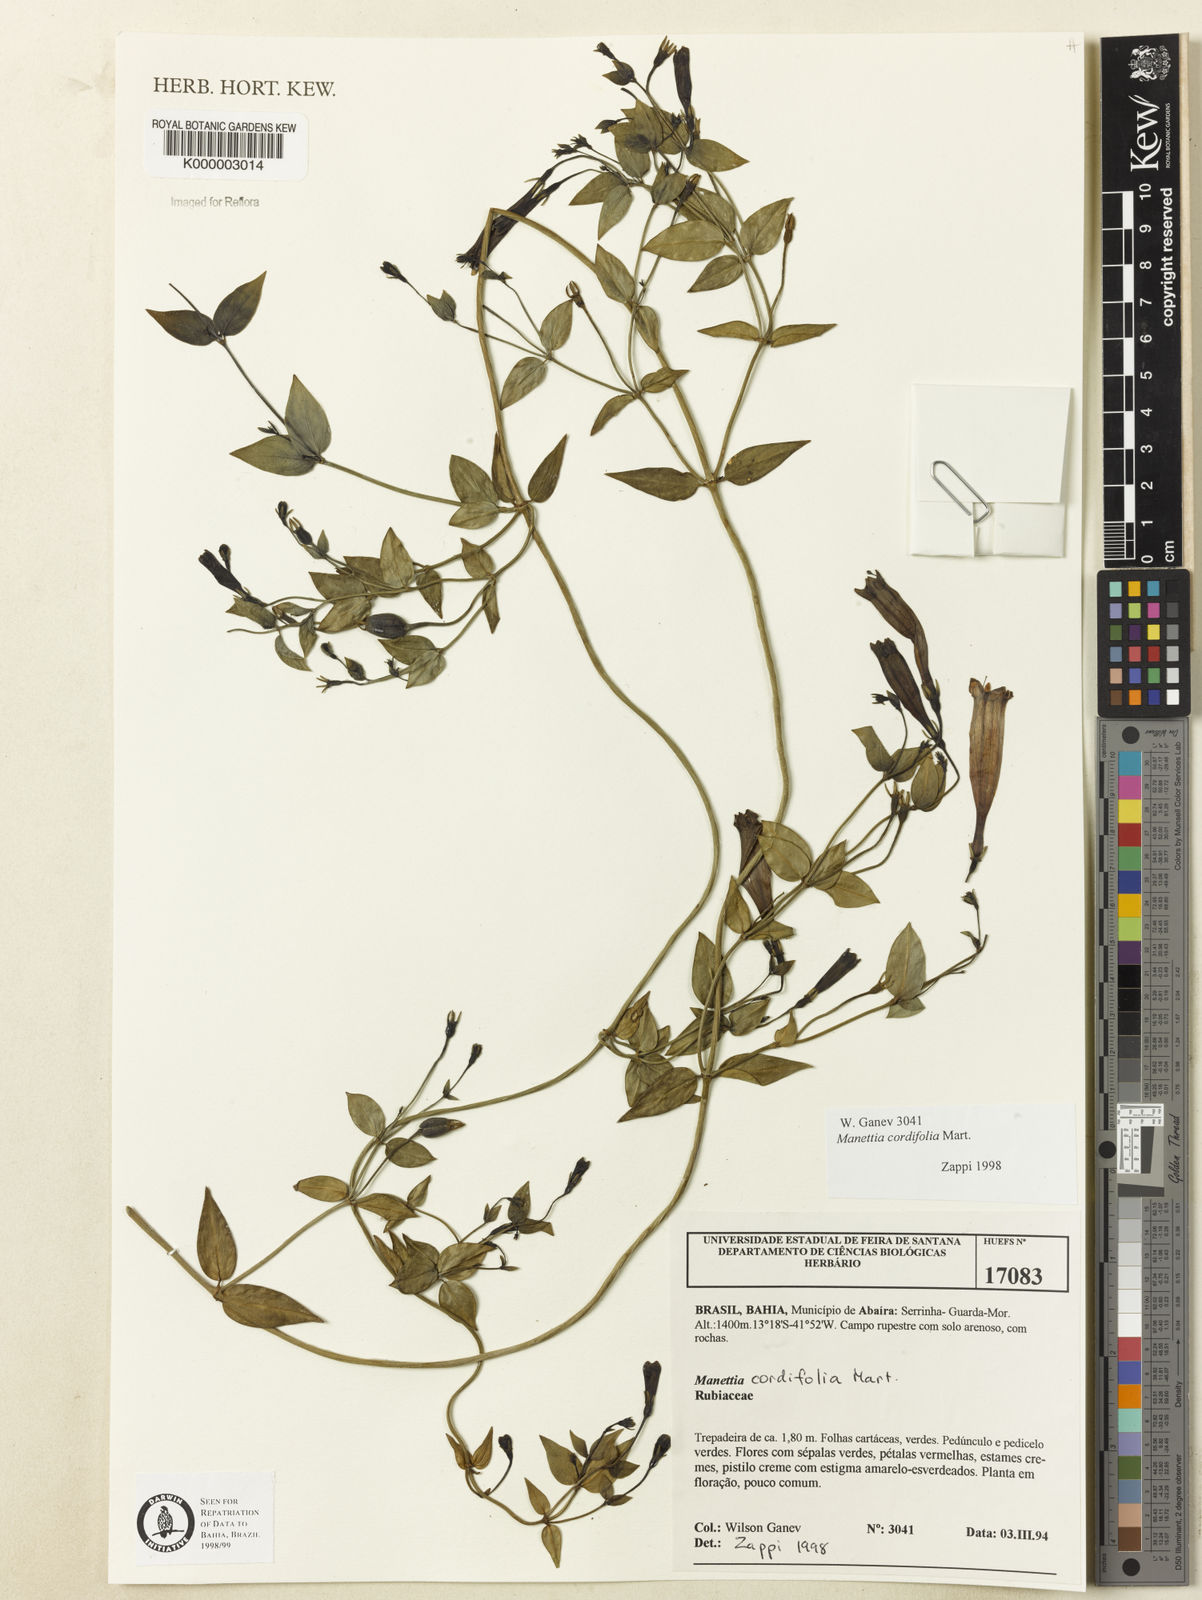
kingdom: Plantae
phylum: Tracheophyta
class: Magnoliopsida
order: Gentianales
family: Rubiaceae
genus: Manettia
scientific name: Manettia cordifolia
